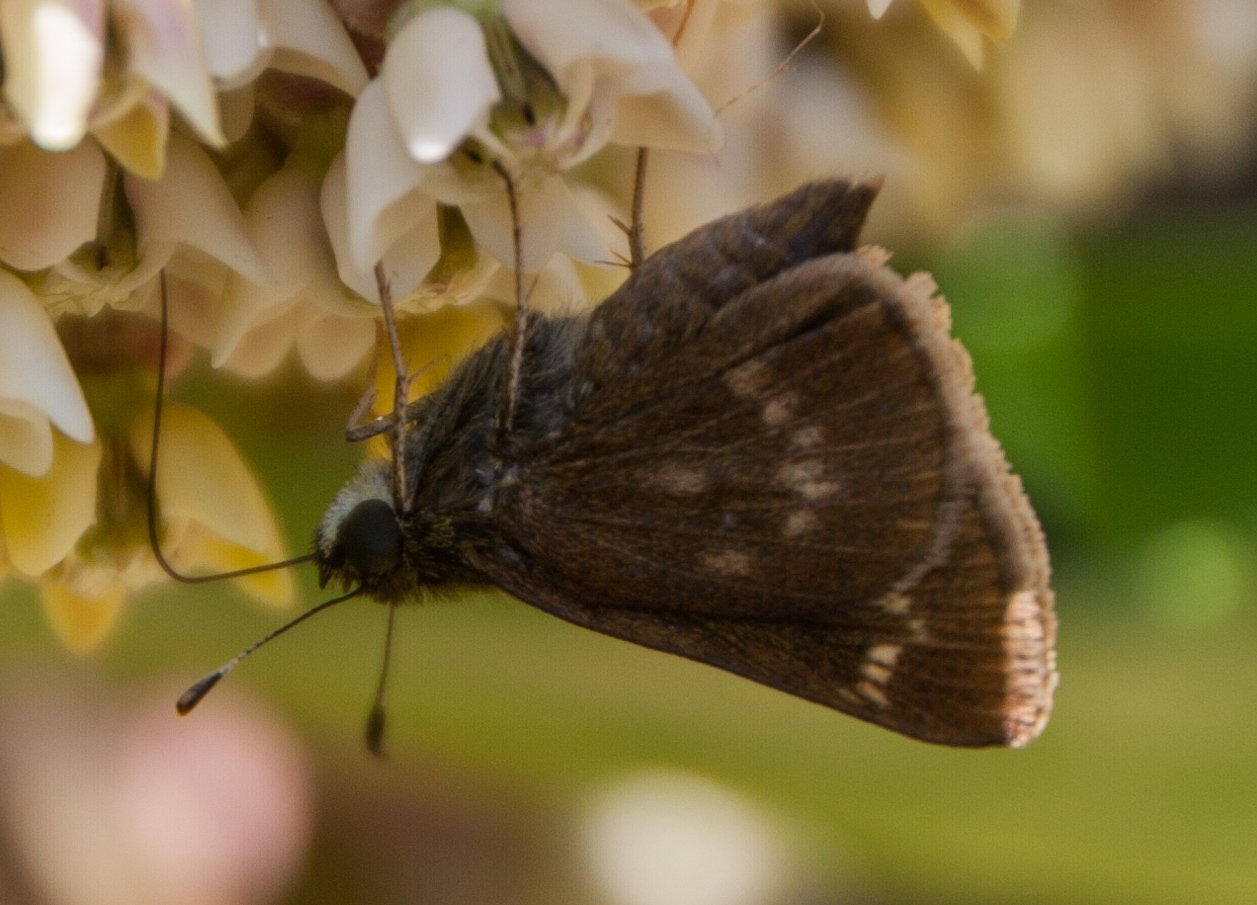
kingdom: Animalia
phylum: Arthropoda
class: Insecta
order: Lepidoptera
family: Hesperiidae
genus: Vernia
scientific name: Vernia verna
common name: Little Glassywing
